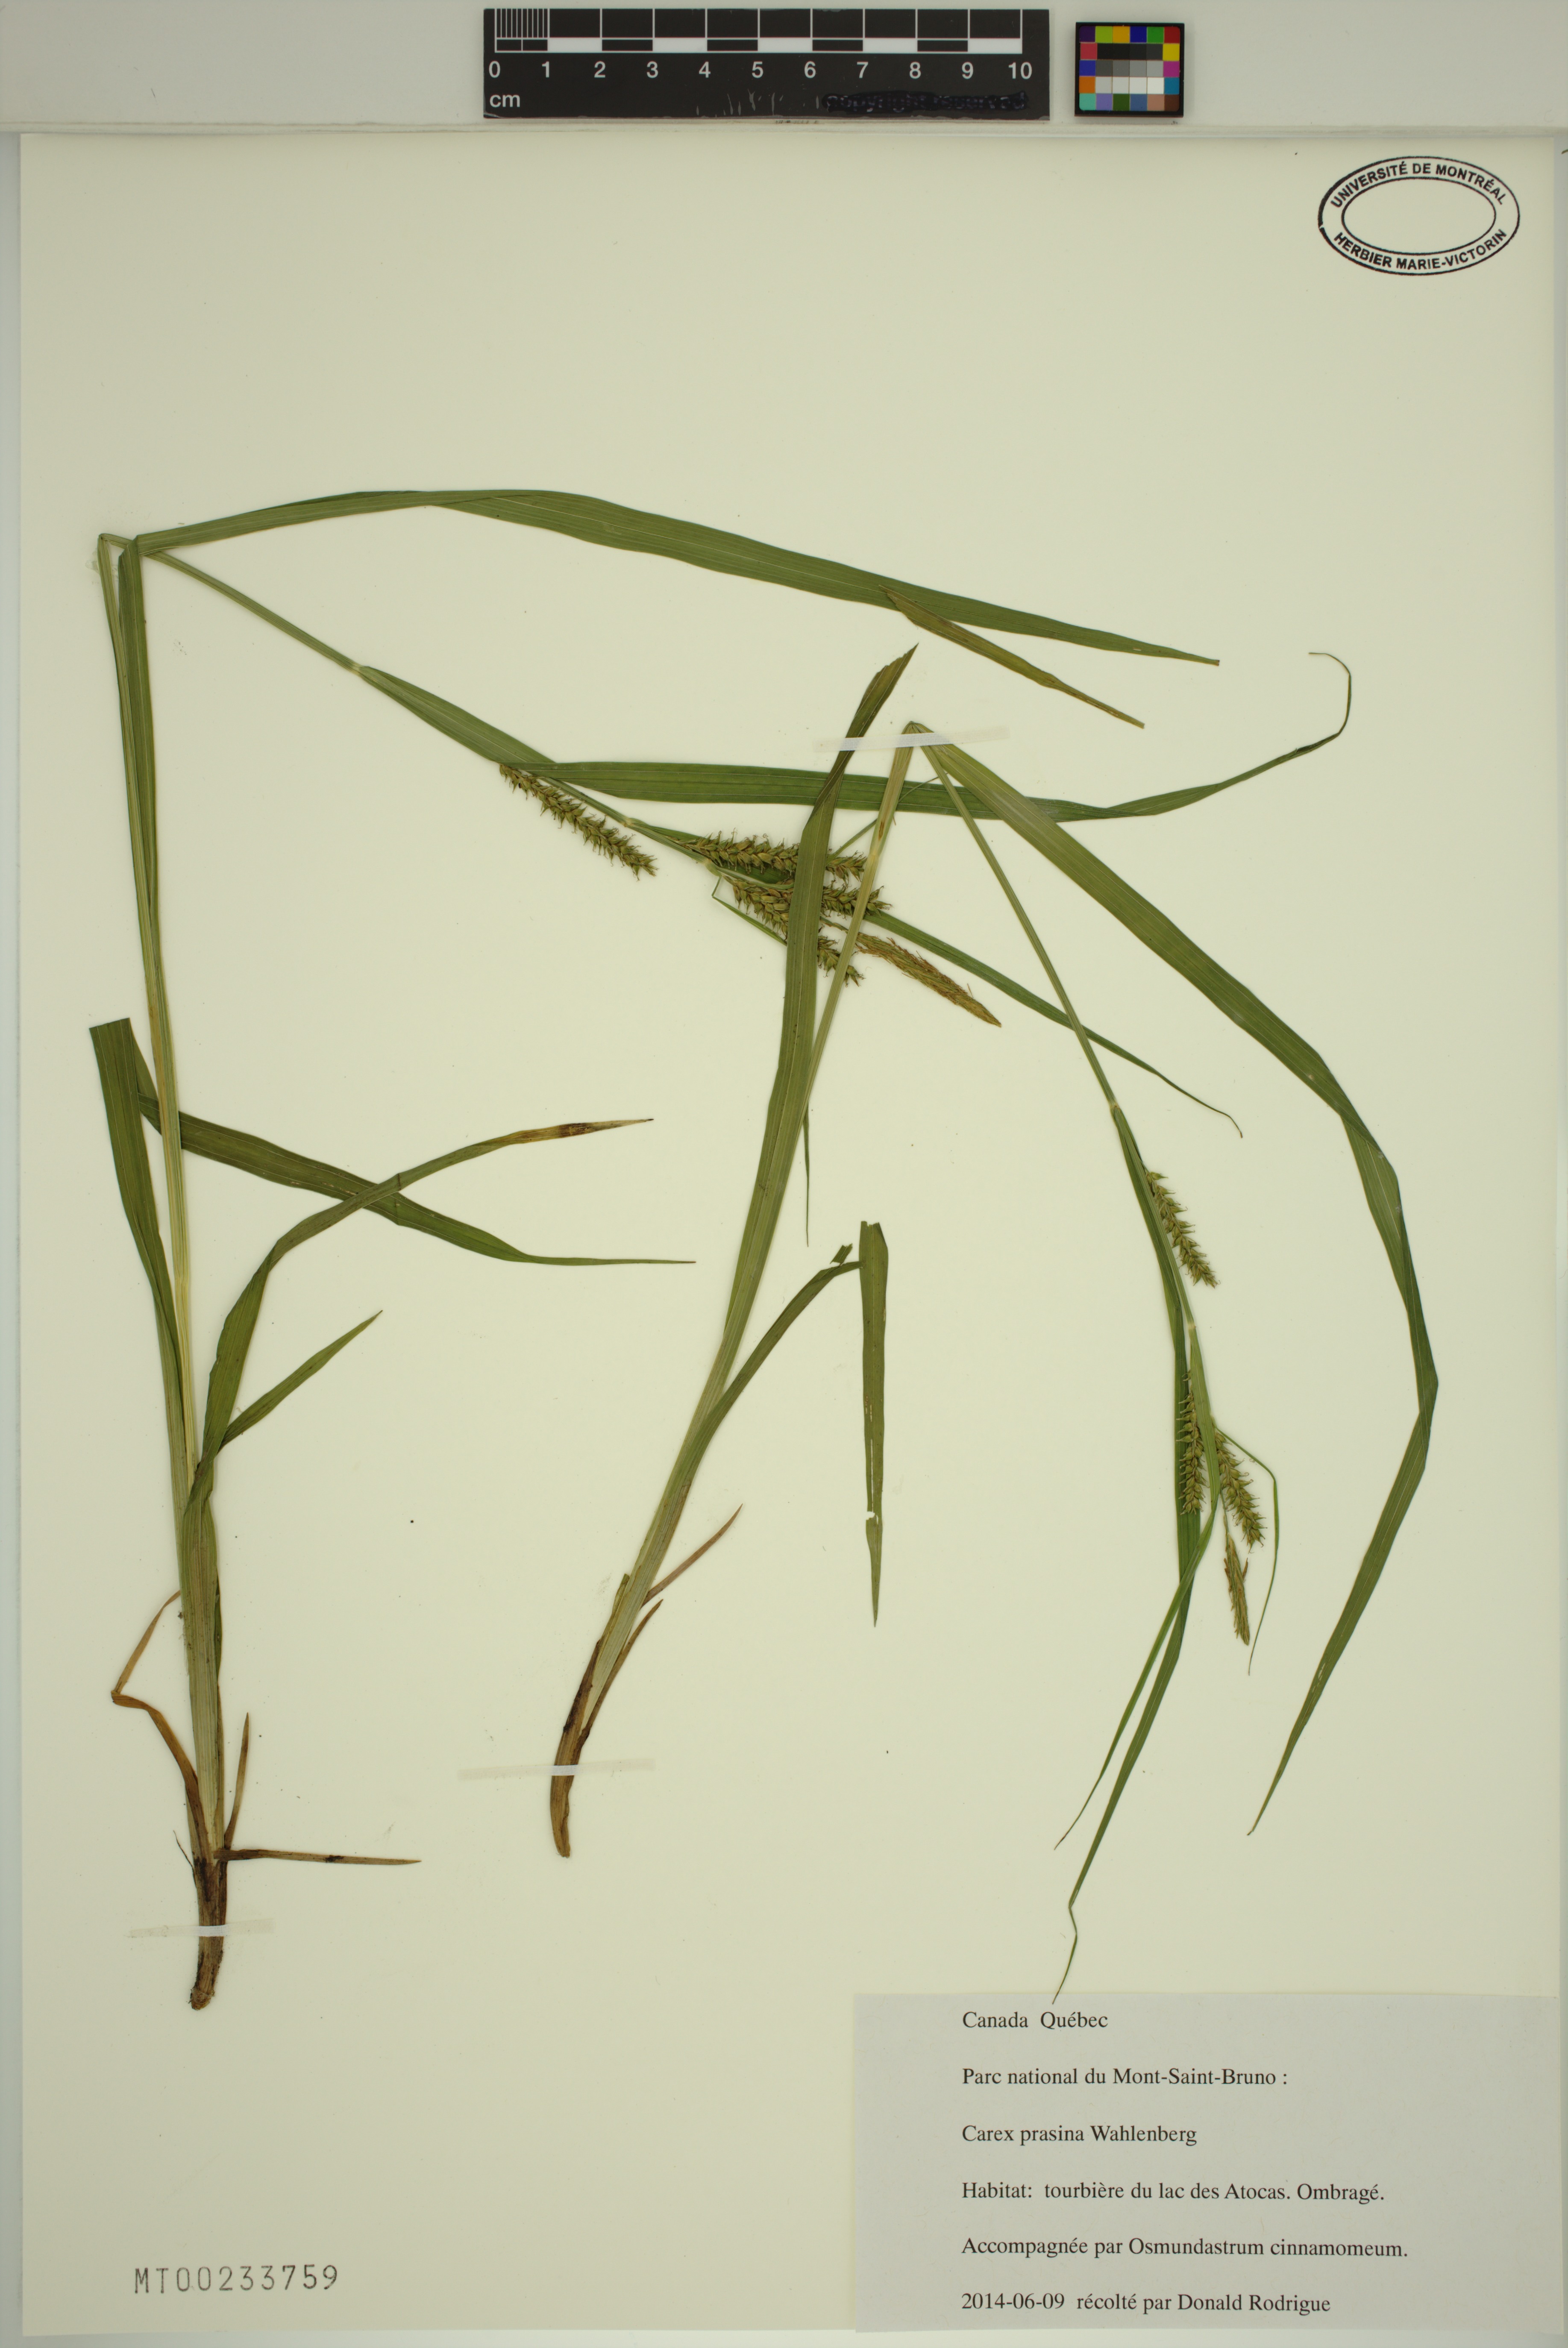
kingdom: Plantae
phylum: Tracheophyta
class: Liliopsida
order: Poales
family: Cyperaceae
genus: Carex
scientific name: Carex prasina
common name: Drooping sedge
